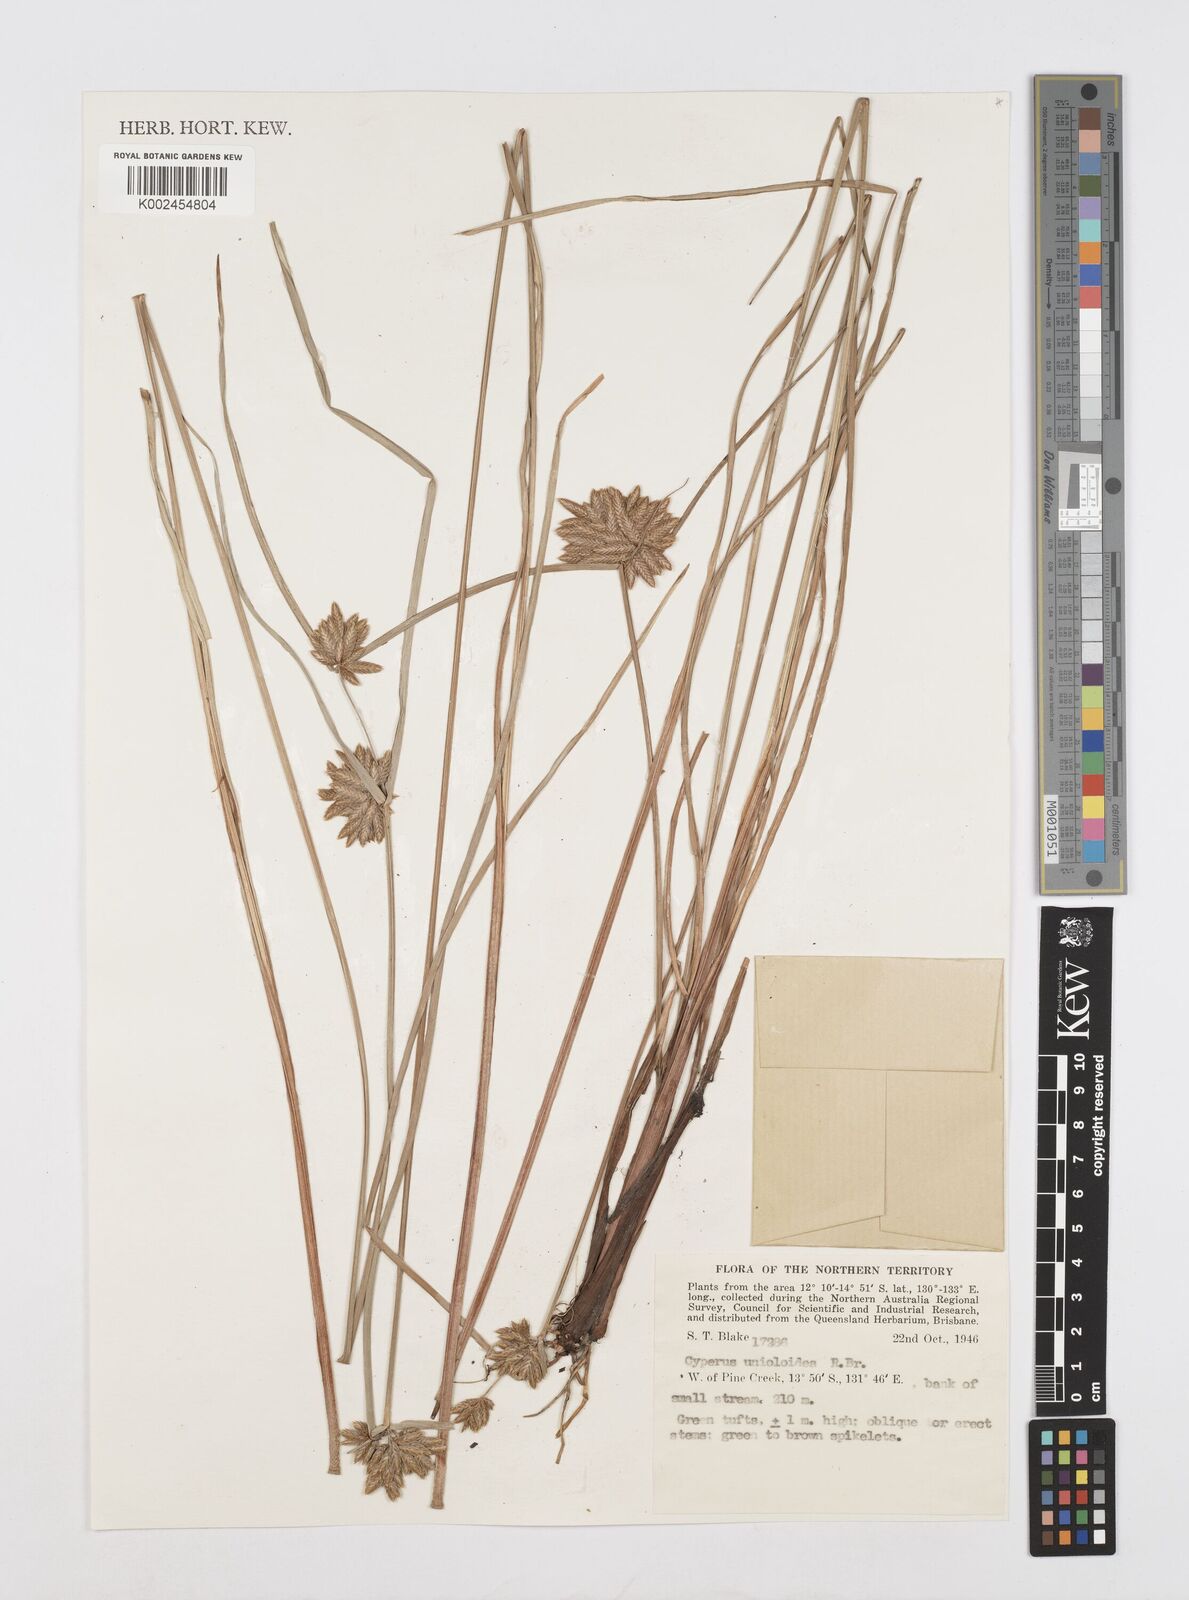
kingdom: Plantae
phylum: Tracheophyta
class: Liliopsida
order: Poales
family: Cyperaceae
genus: Cyperus
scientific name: Cyperus unioloides
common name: Uniola flatsedge
